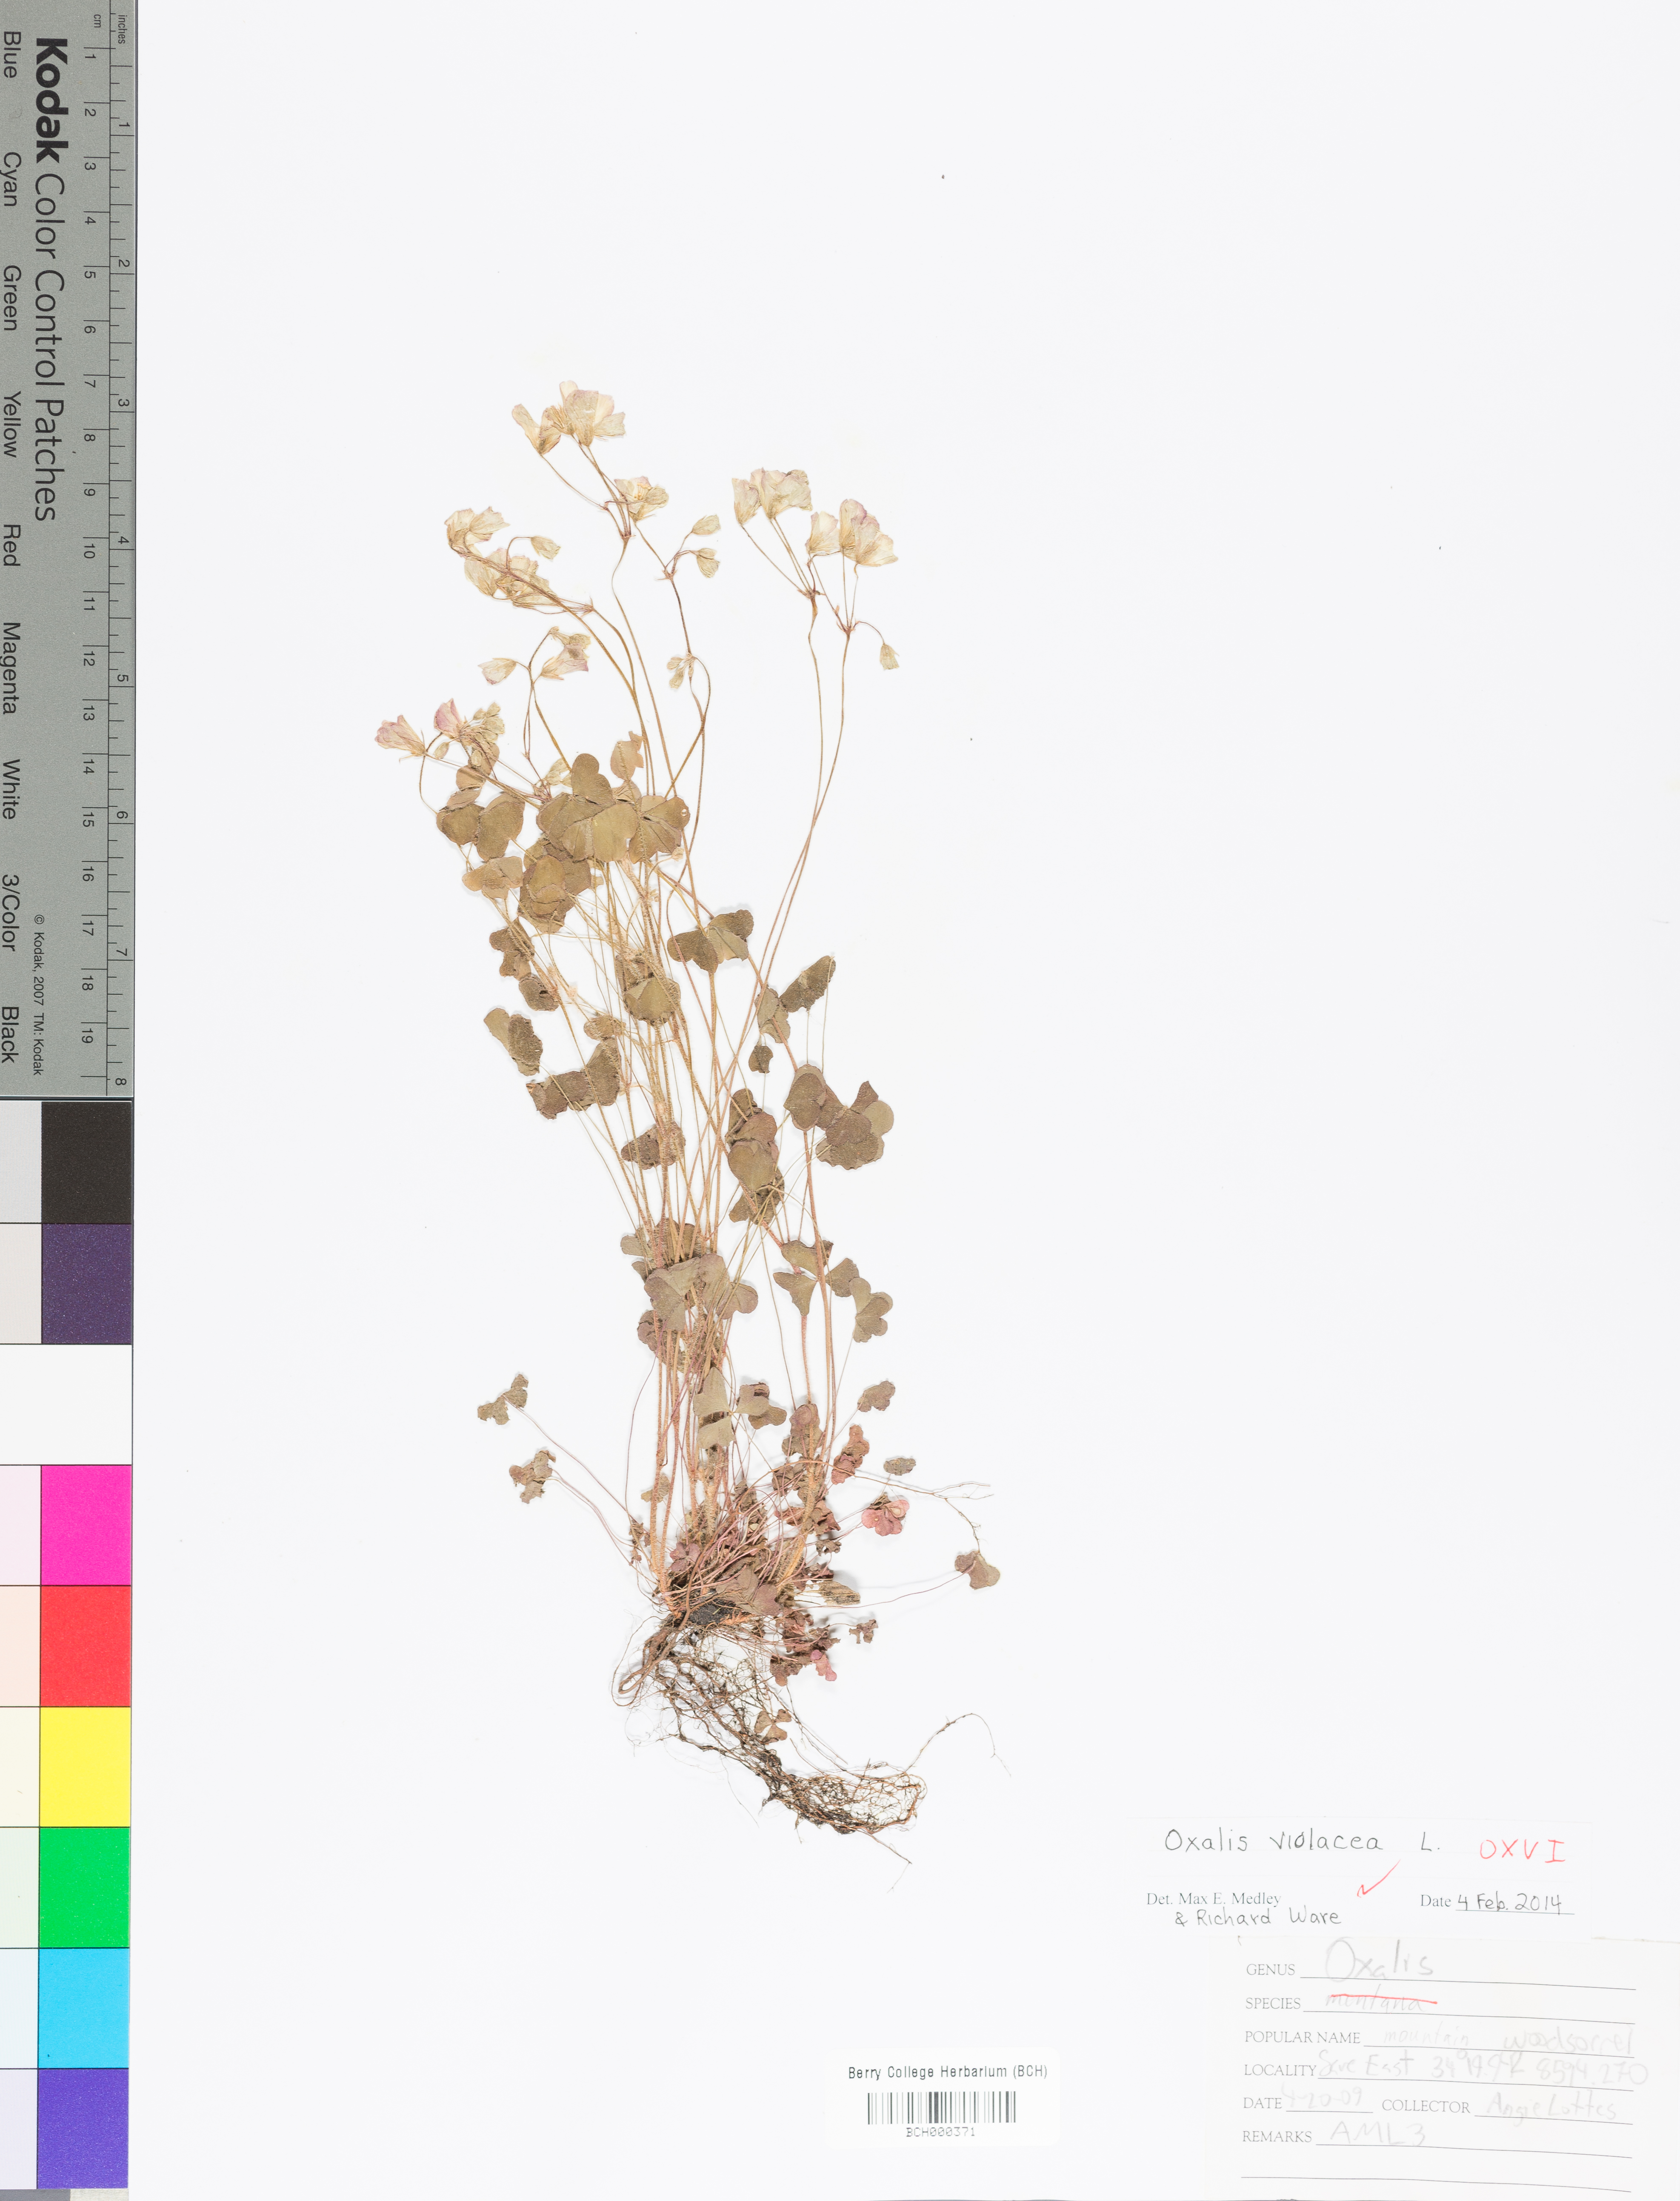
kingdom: Plantae
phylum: Tracheophyta
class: Magnoliopsida
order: Oxalidales
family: Oxalidaceae
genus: Oxalis
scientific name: Oxalis violacea
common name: Violet wood-sorrel
